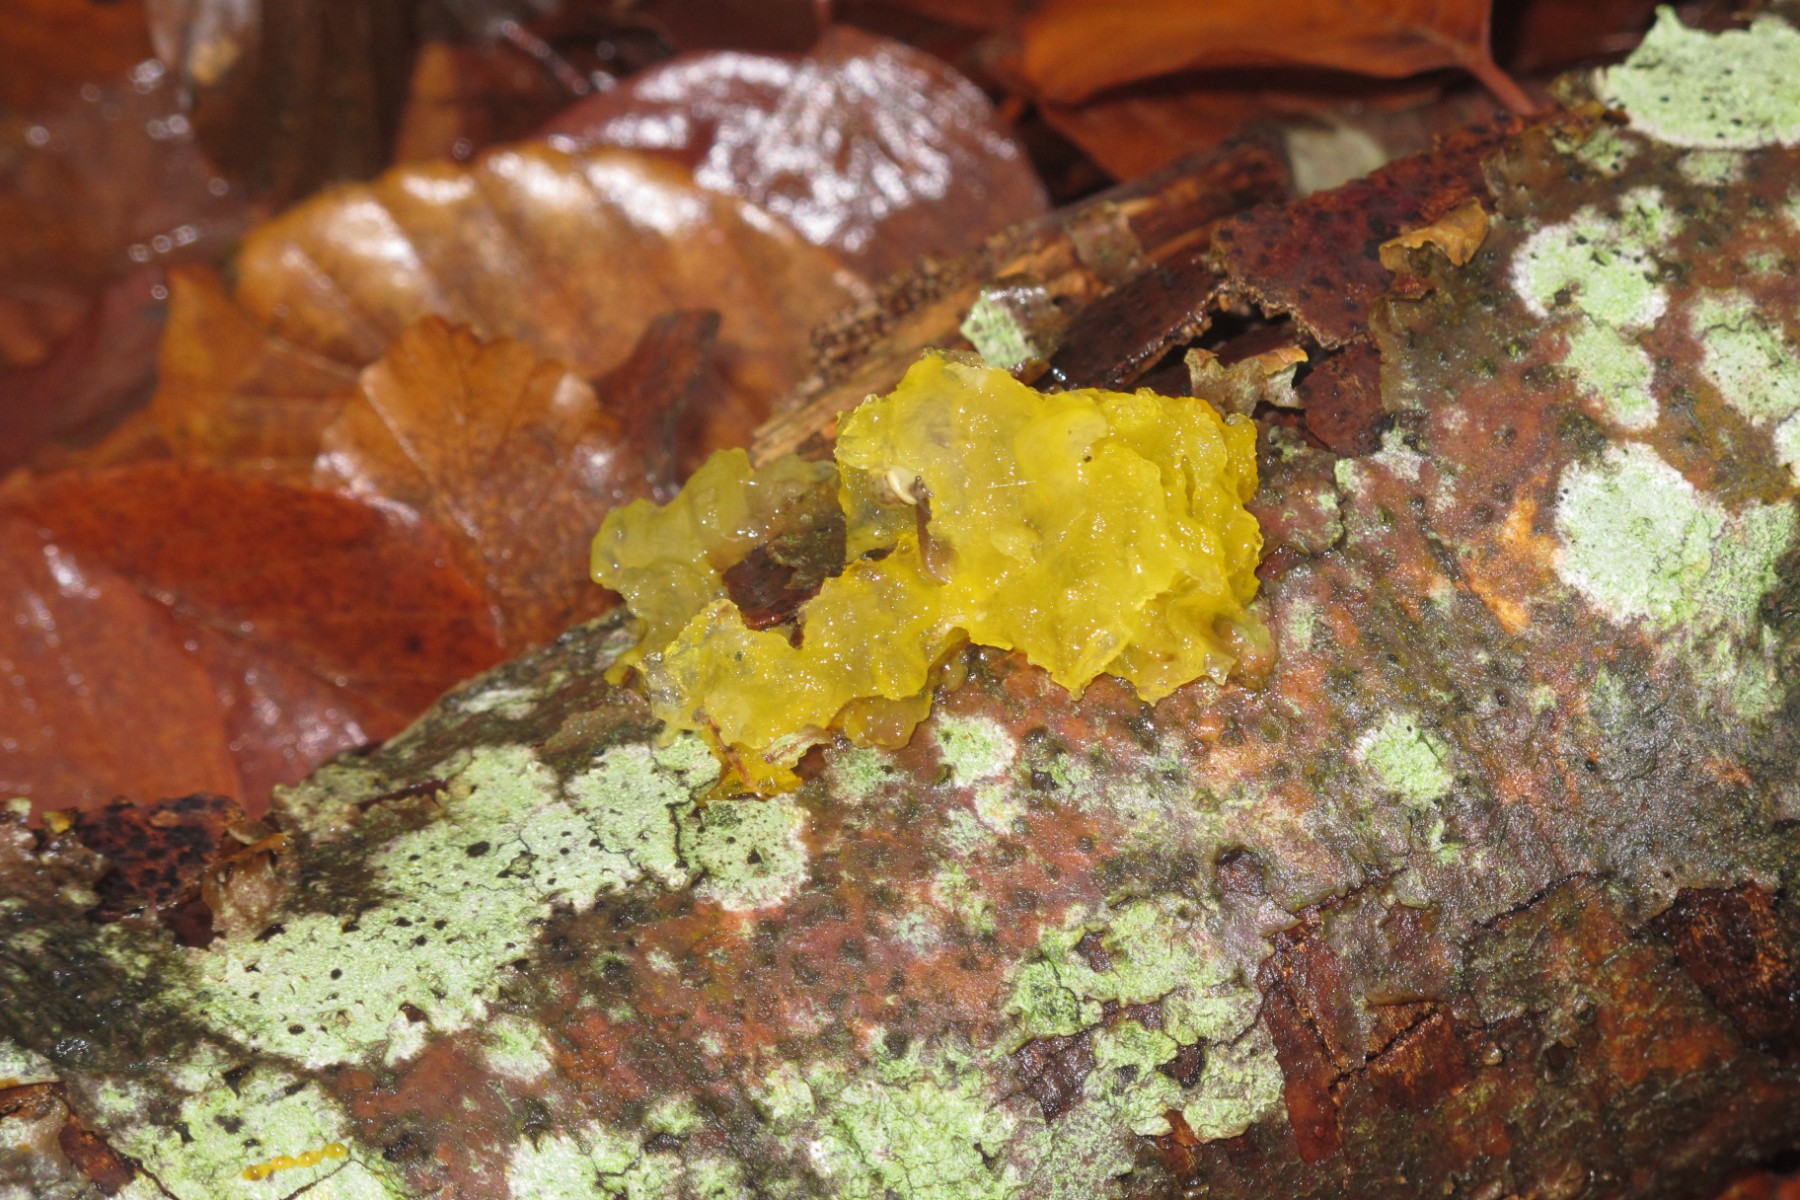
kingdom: Fungi
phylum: Basidiomycota
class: Tremellomycetes
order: Tremellales
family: Tremellaceae
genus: Tremella
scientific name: Tremella mesenterica
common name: gul bævresvamp
